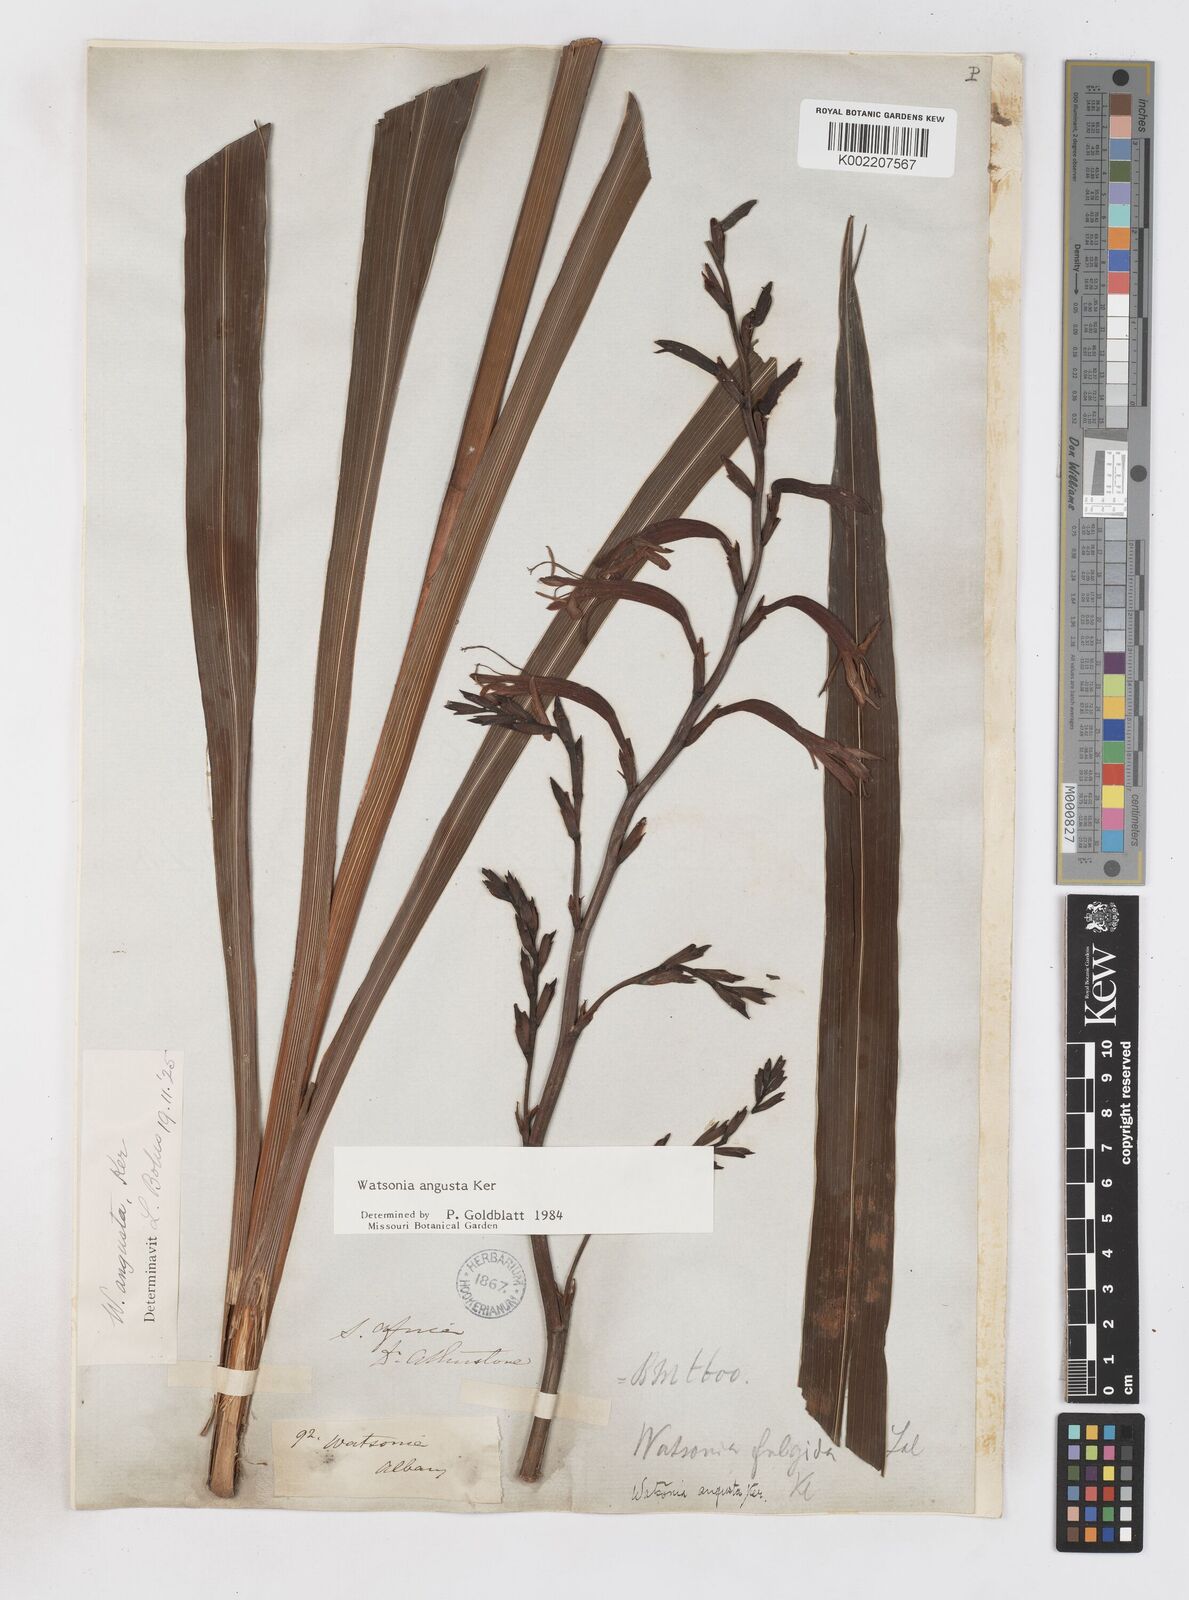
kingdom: Plantae
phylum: Tracheophyta
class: Liliopsida
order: Asparagales
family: Iridaceae
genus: Watsonia
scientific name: Watsonia angusta
